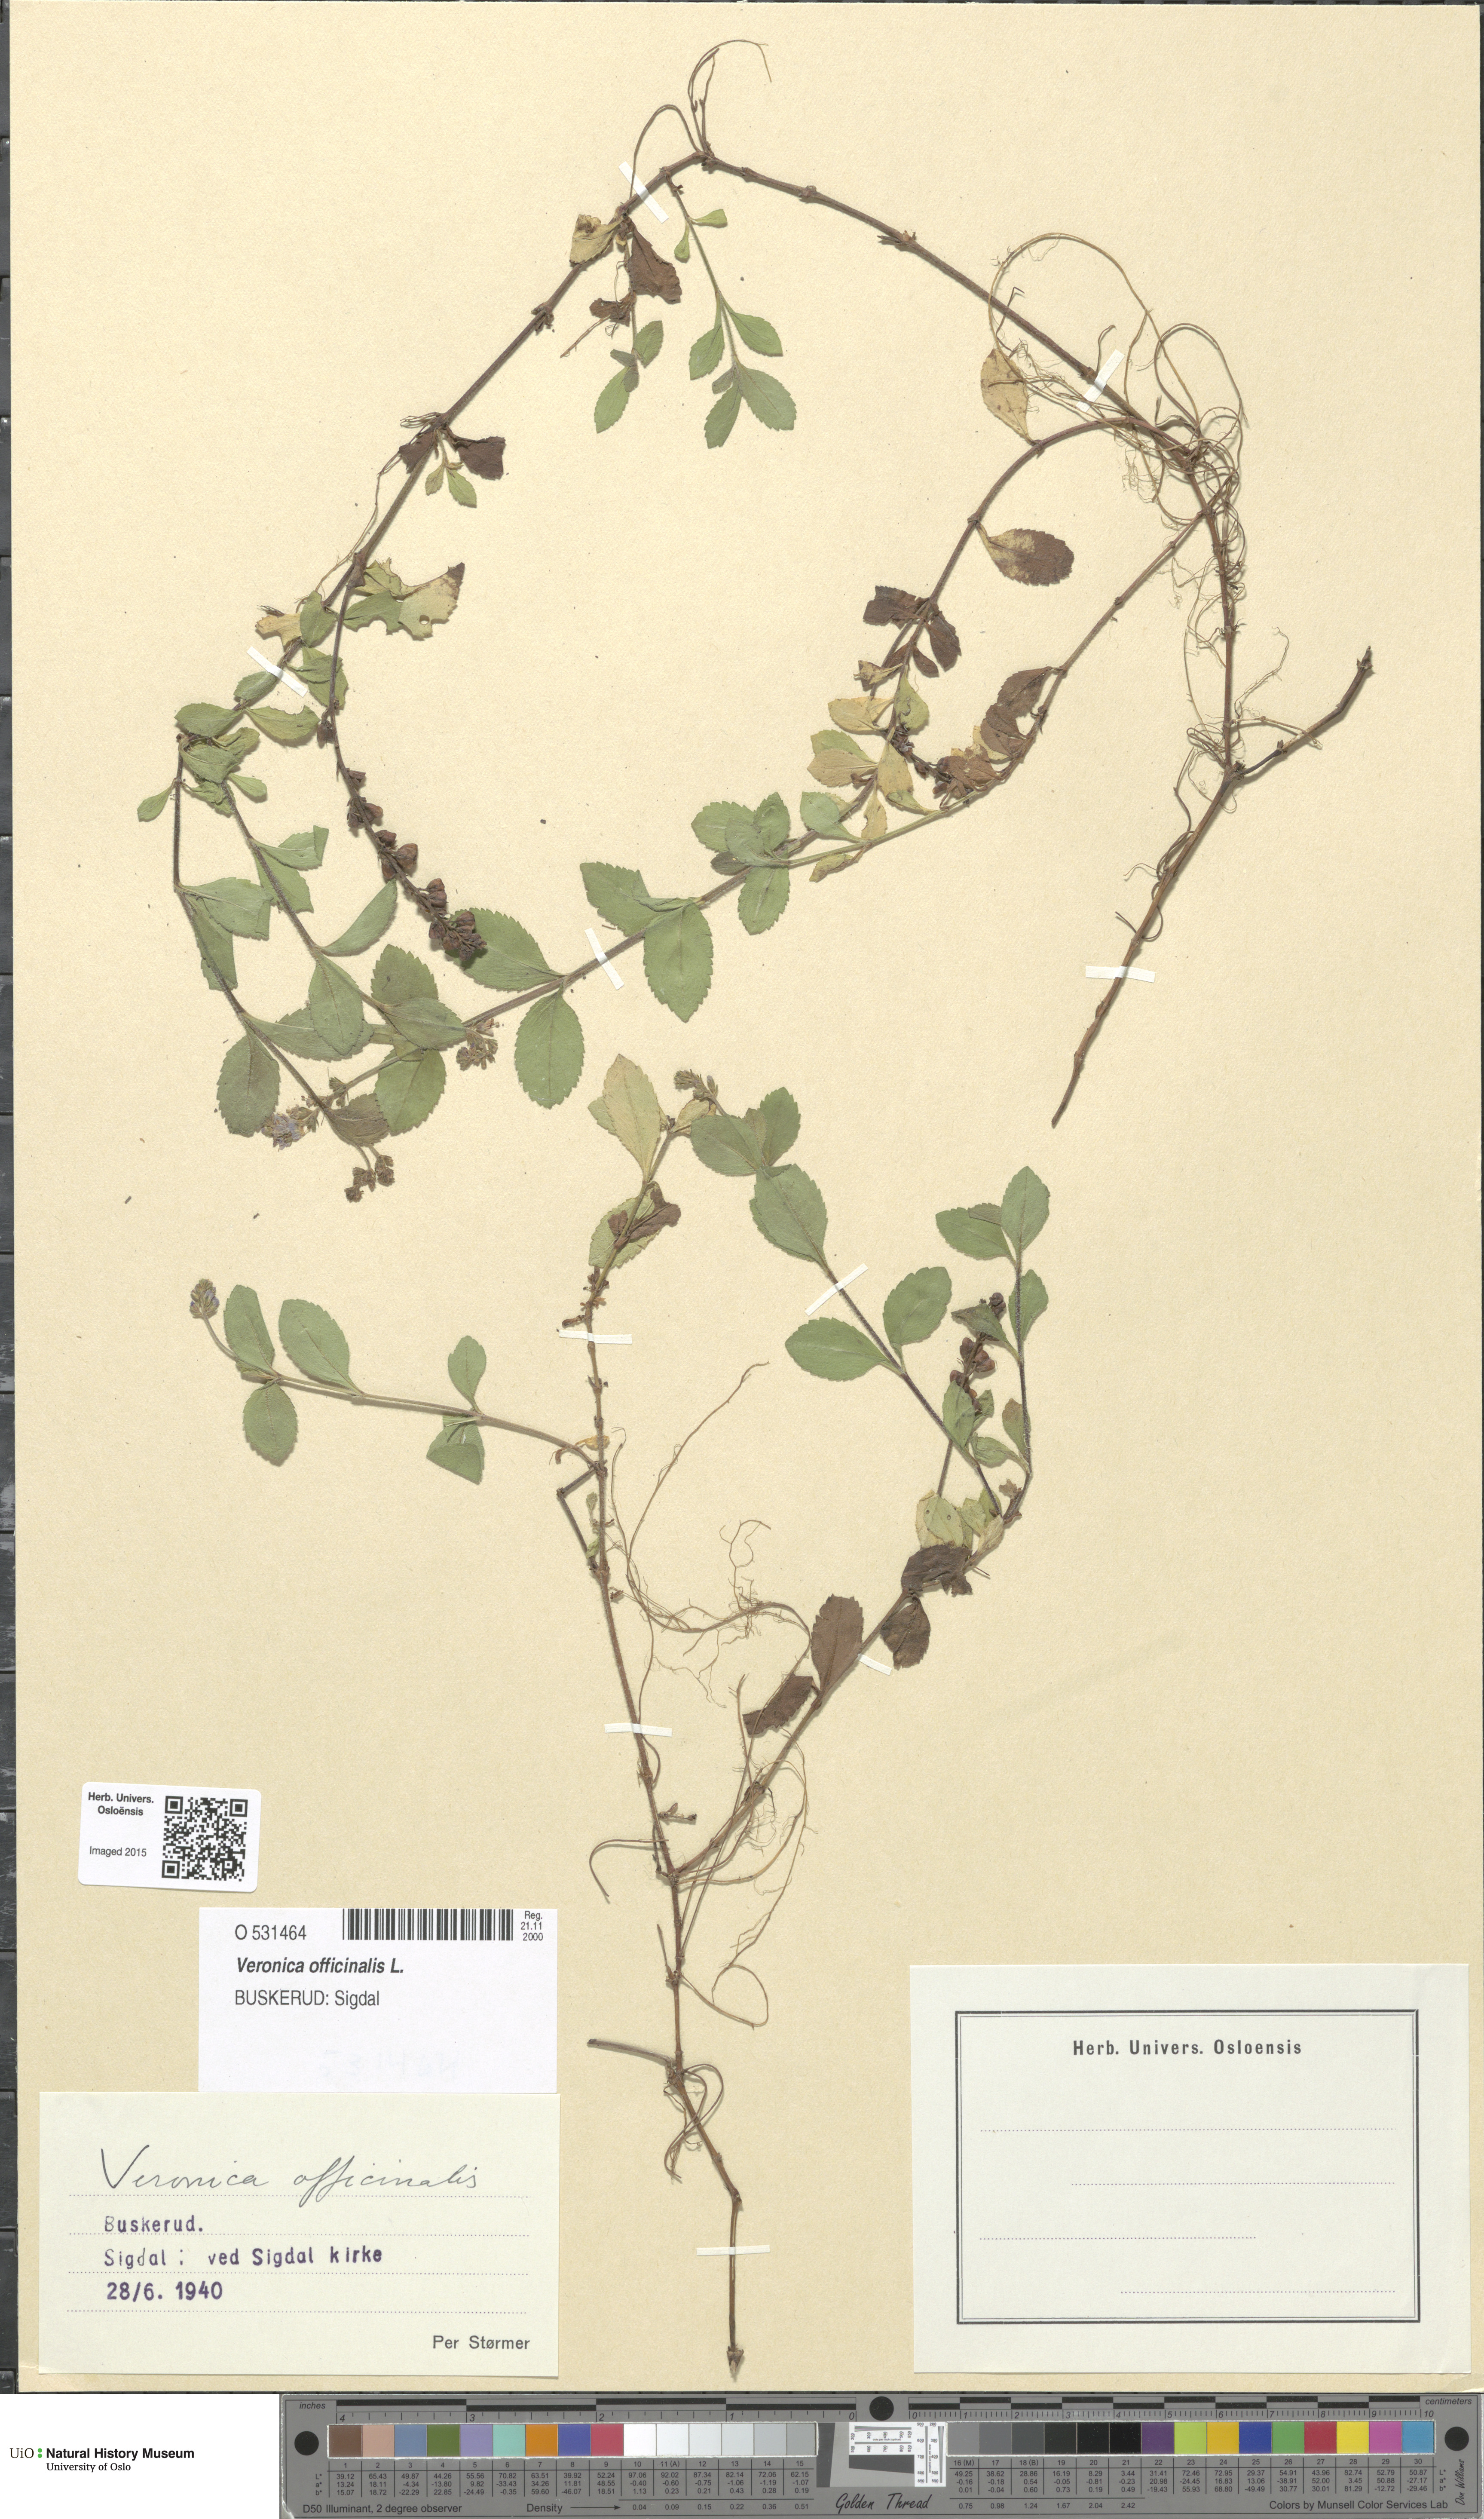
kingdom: Plantae
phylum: Tracheophyta
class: Magnoliopsida
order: Lamiales
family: Plantaginaceae
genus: Veronica
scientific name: Veronica officinalis
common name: Common speedwell
